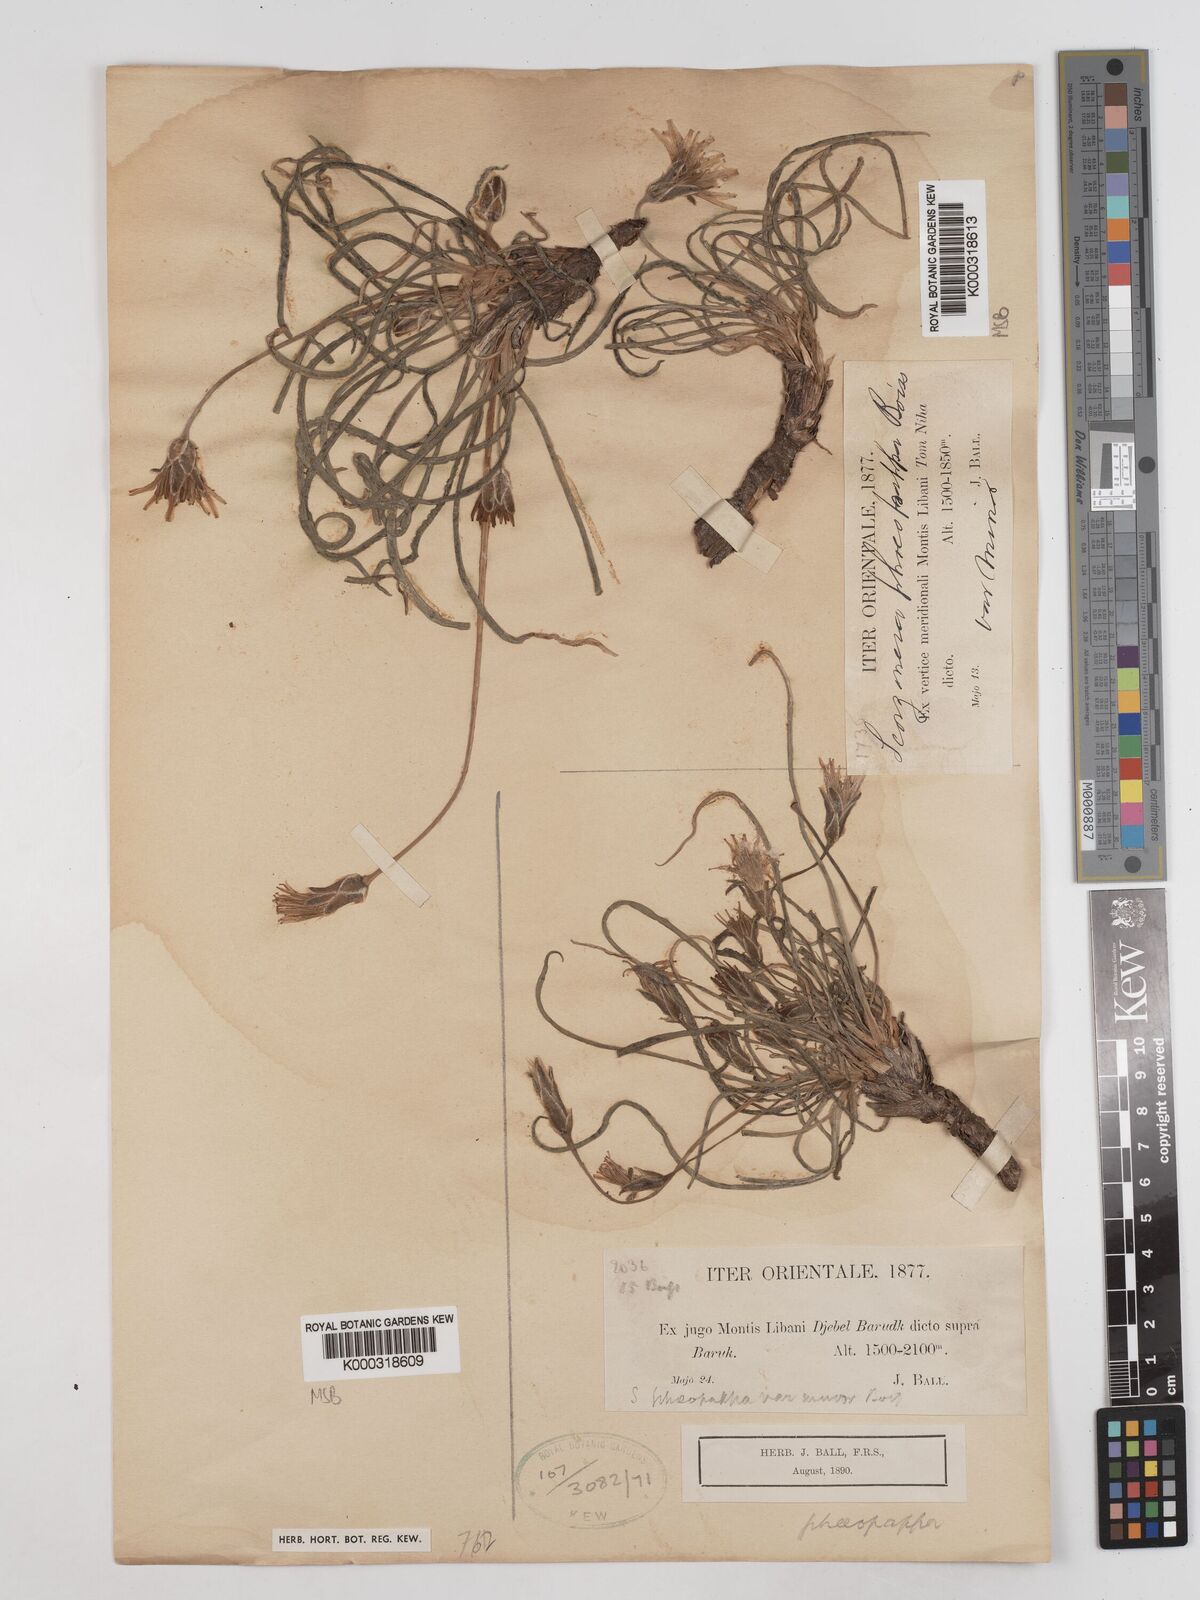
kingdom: Plantae
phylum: Tracheophyta
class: Magnoliopsida
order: Asterales
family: Asteraceae
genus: Pseudopodospermum
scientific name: Pseudopodospermum phaeopappum
